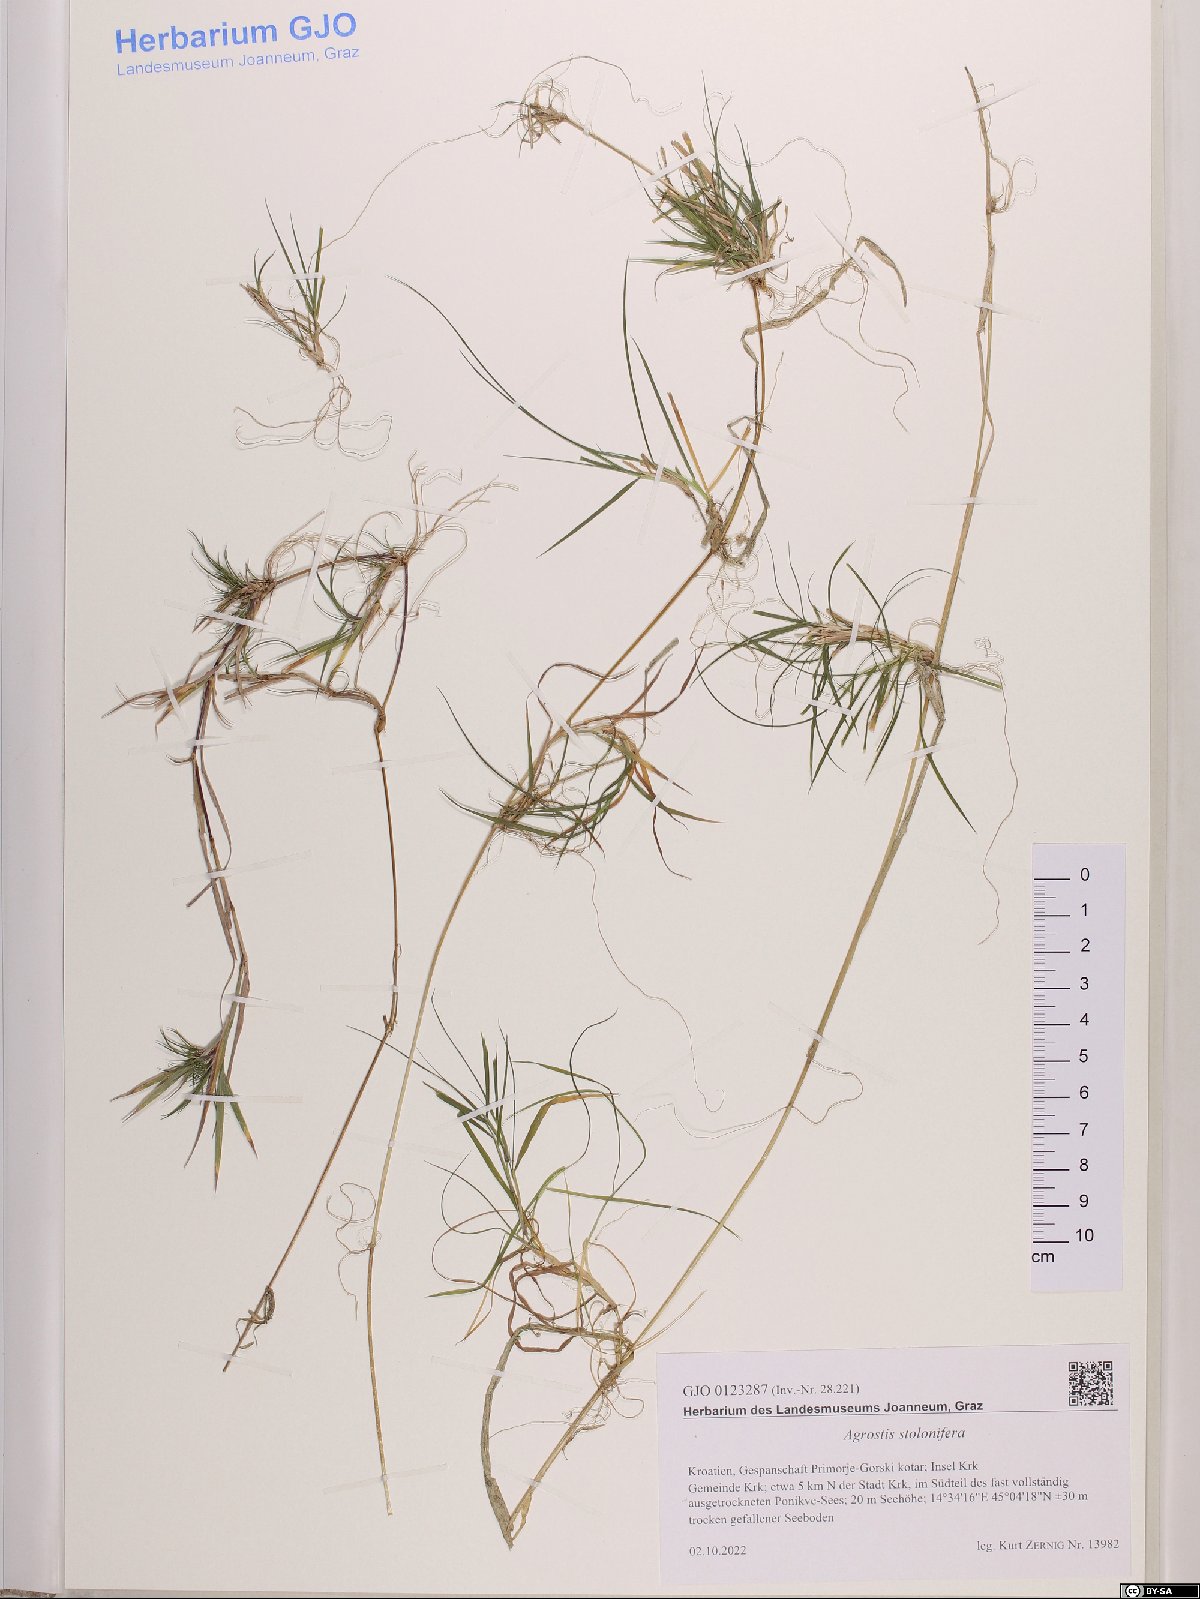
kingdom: Plantae
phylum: Tracheophyta
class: Liliopsida
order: Poales
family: Poaceae
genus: Agrostis
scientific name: Agrostis stolonifera
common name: Creeping bentgrass
